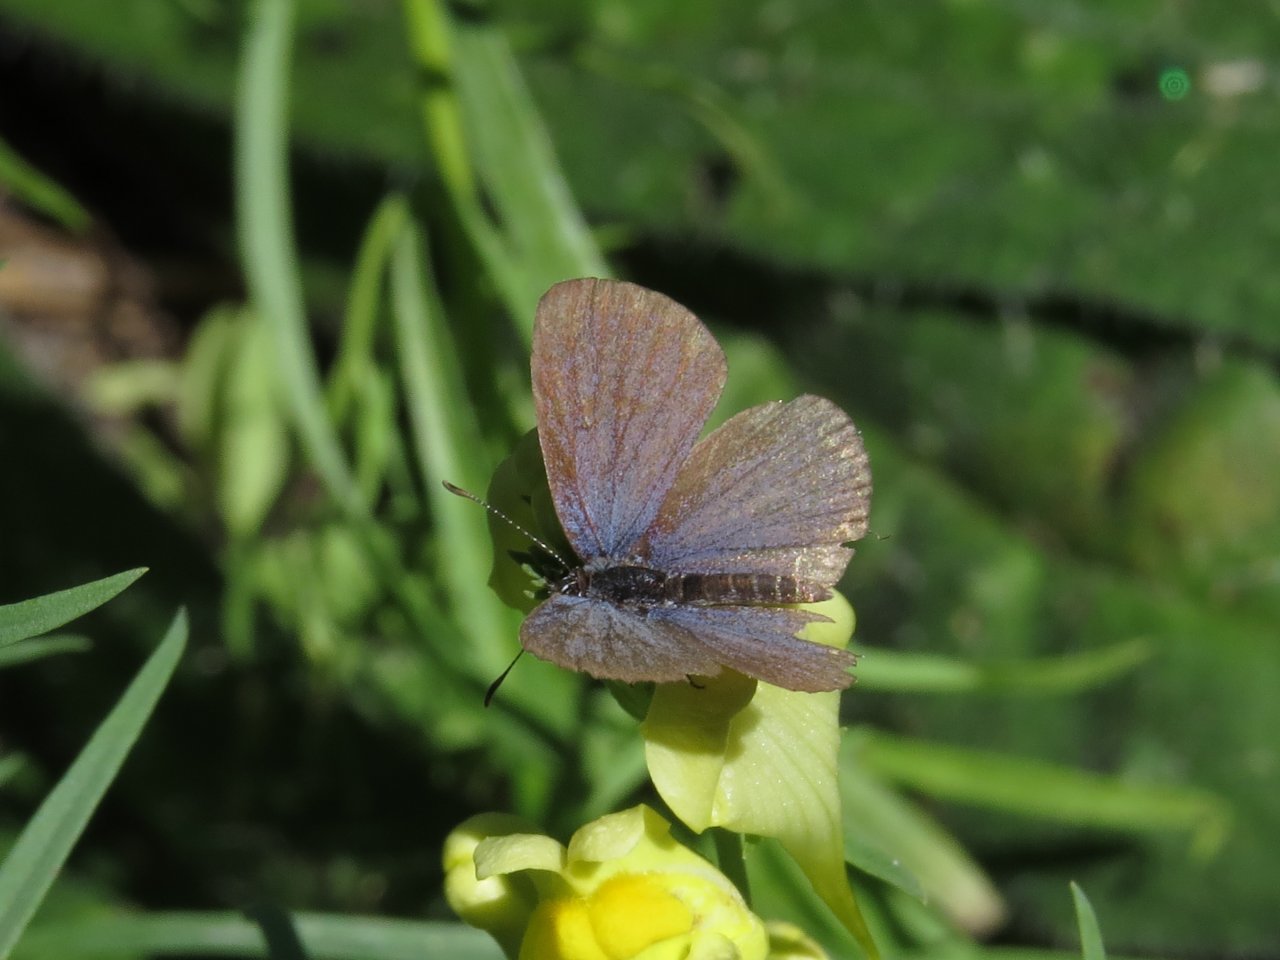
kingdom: Animalia
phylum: Arthropoda
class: Insecta
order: Lepidoptera
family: Lycaenidae
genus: Elkalyce
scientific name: Elkalyce comyntas
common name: Eastern Tailed-Blue
